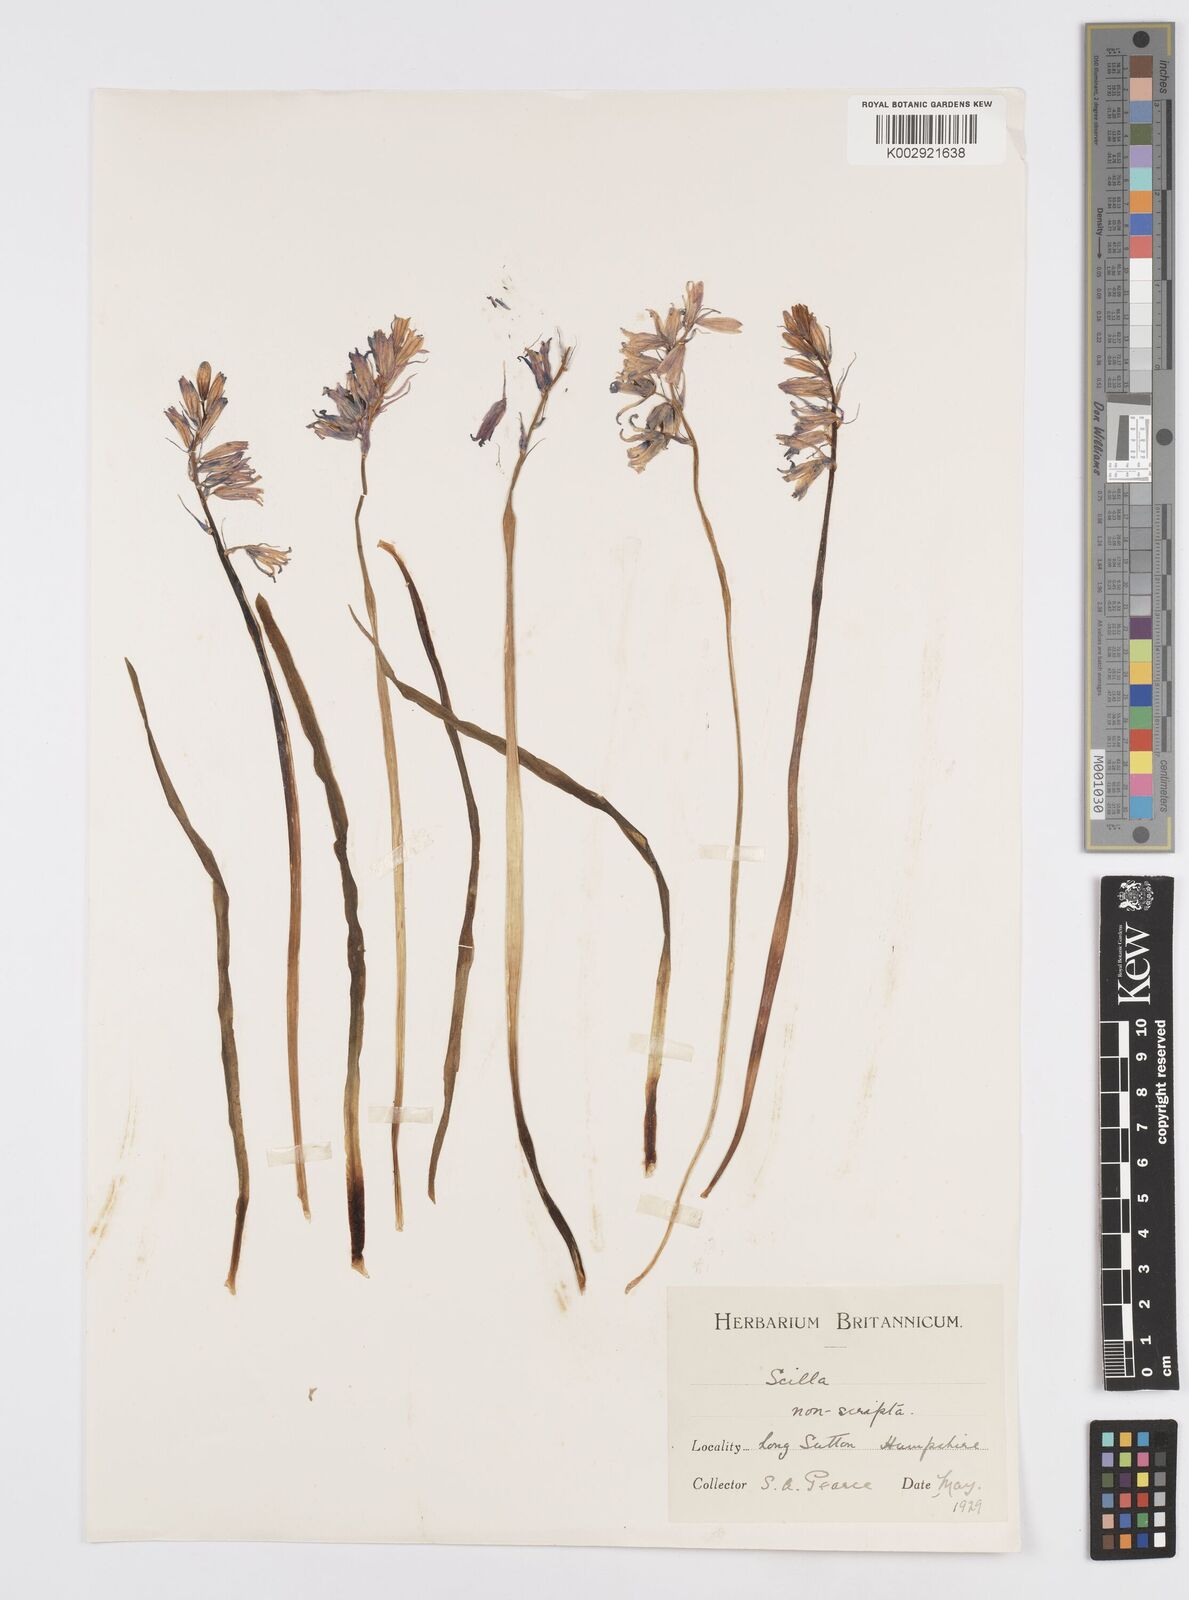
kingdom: Plantae
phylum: Tracheophyta
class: Liliopsida
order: Asparagales
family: Asparagaceae
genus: Hyacinthoides
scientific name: Hyacinthoides non-scripta
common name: Bluebell
